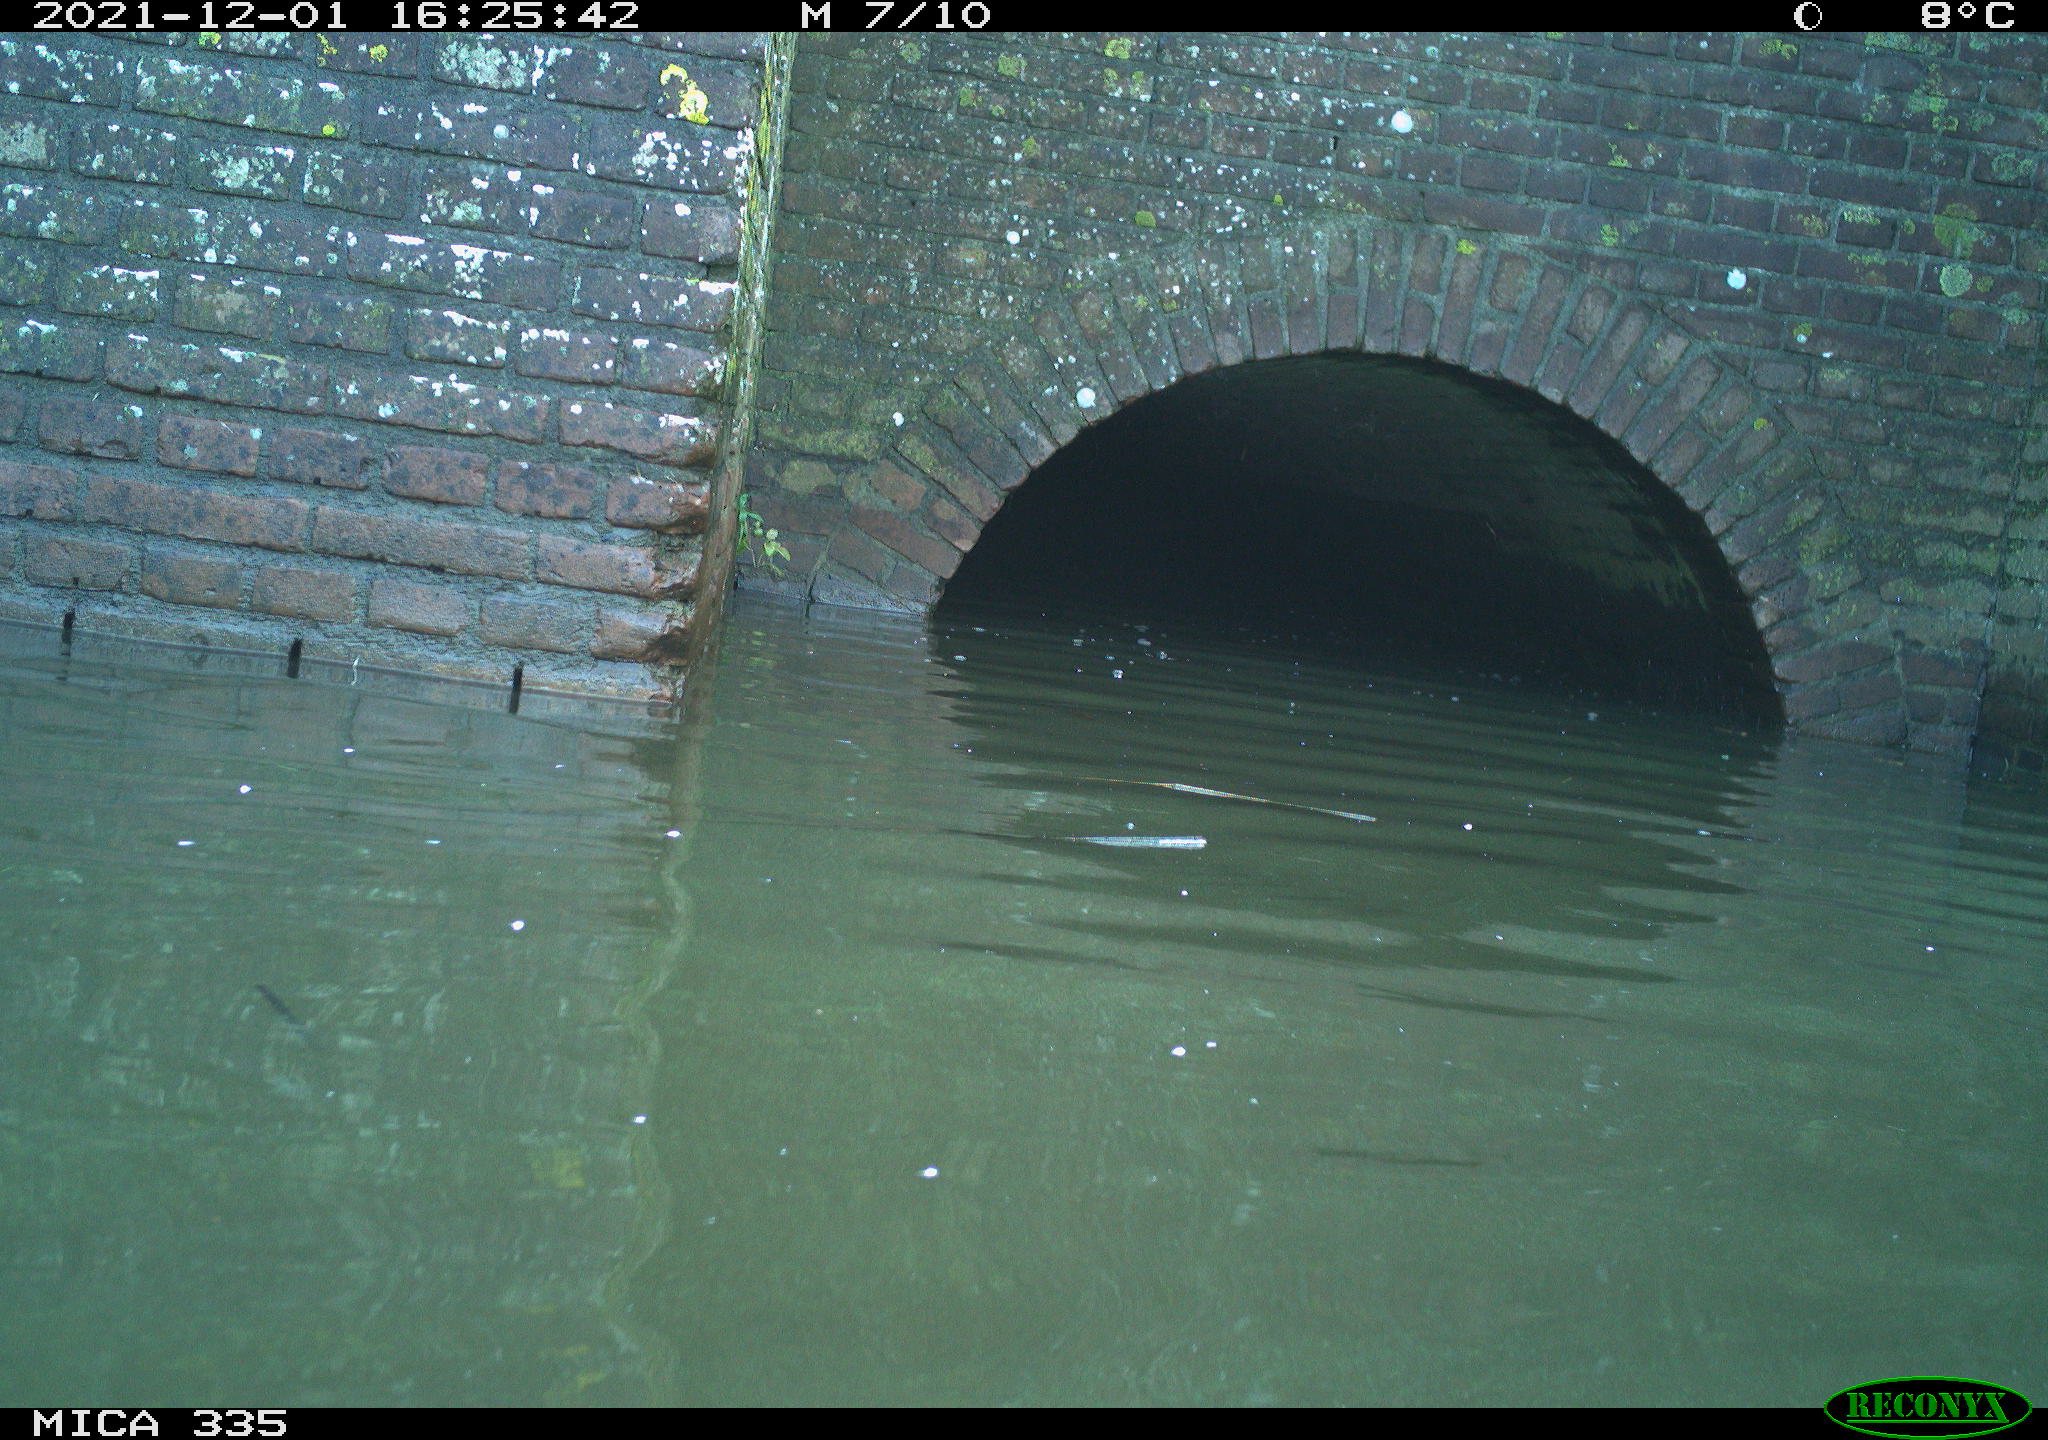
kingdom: Animalia
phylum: Chordata
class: Aves
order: Anseriformes
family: Anatidae
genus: Anas
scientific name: Anas platyrhynchos
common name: Mallard
